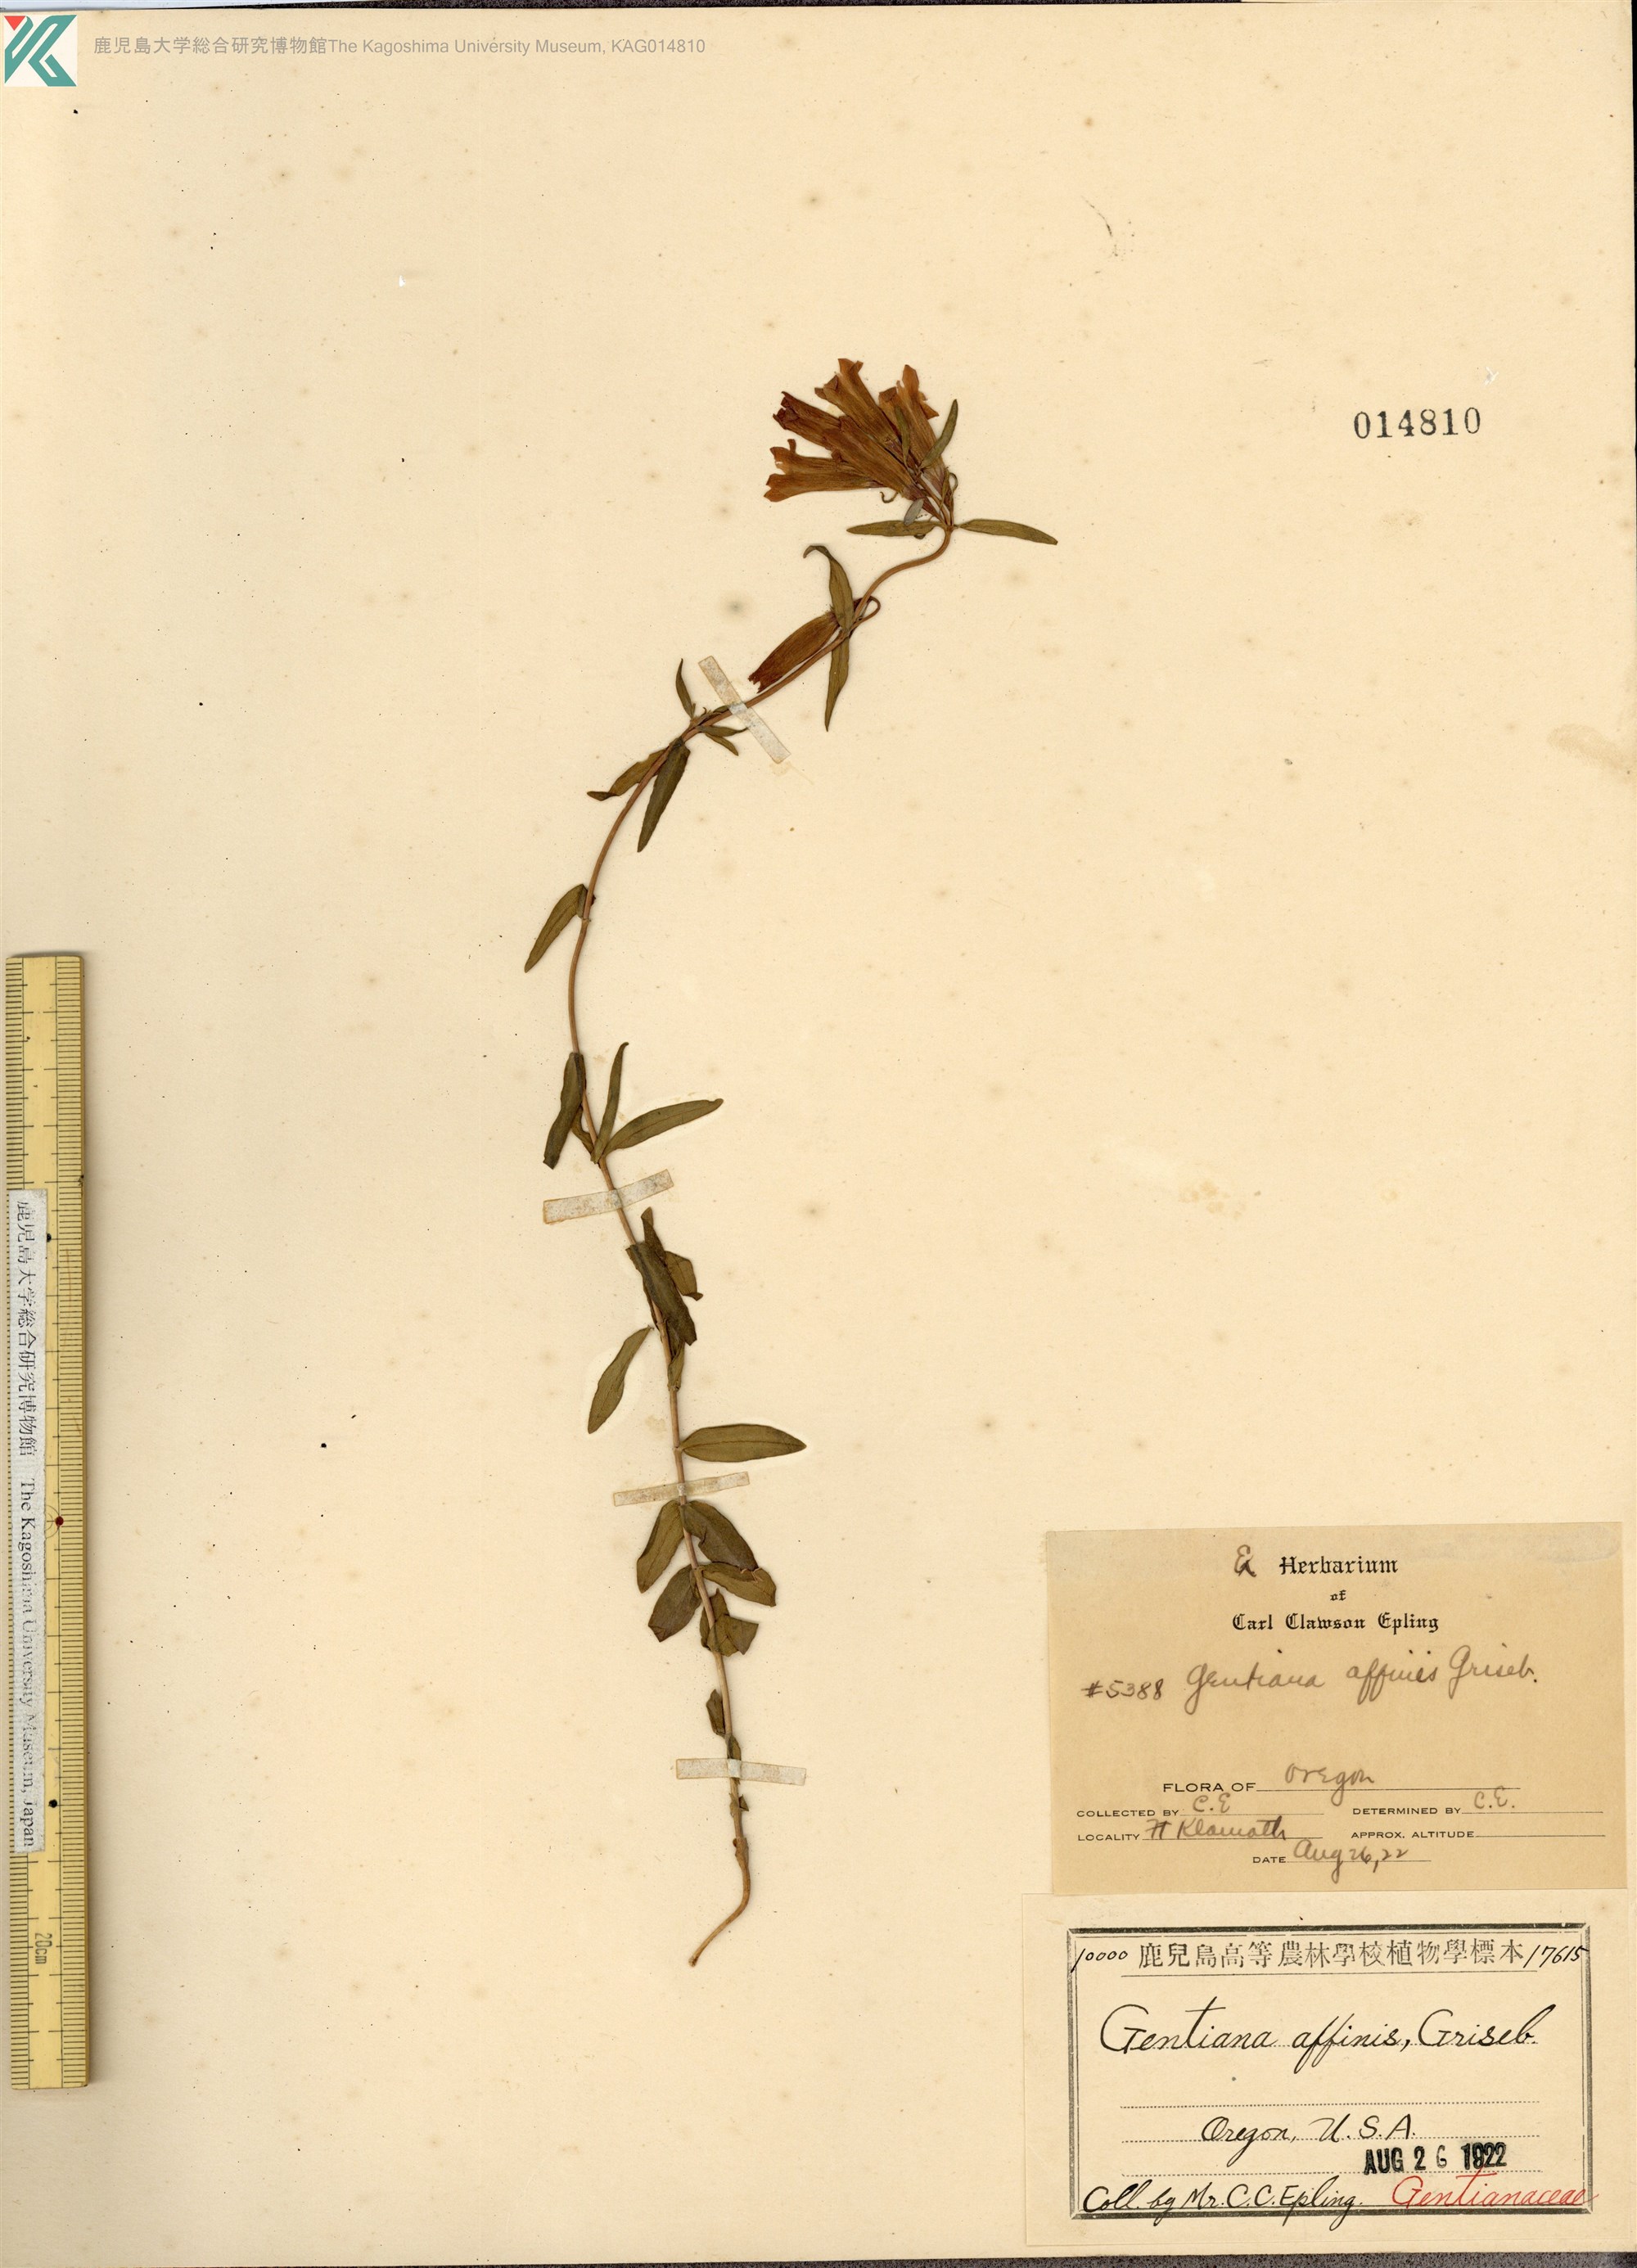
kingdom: Plantae
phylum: Tracheophyta
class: Magnoliopsida
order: Gentianales
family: Gentianaceae
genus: Gentiana
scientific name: Gentiana affinis
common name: Rocky mountain gentian
